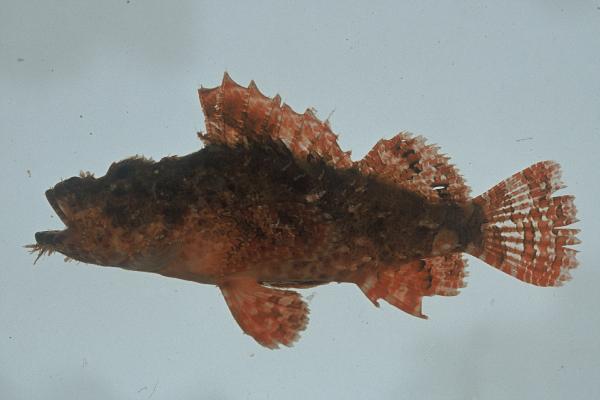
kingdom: Animalia
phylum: Chordata
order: Scorpaeniformes
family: Scorpaenidae
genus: Scorpaenopsis
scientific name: Scorpaenopsis venosa
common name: Raggy scorpionfish
